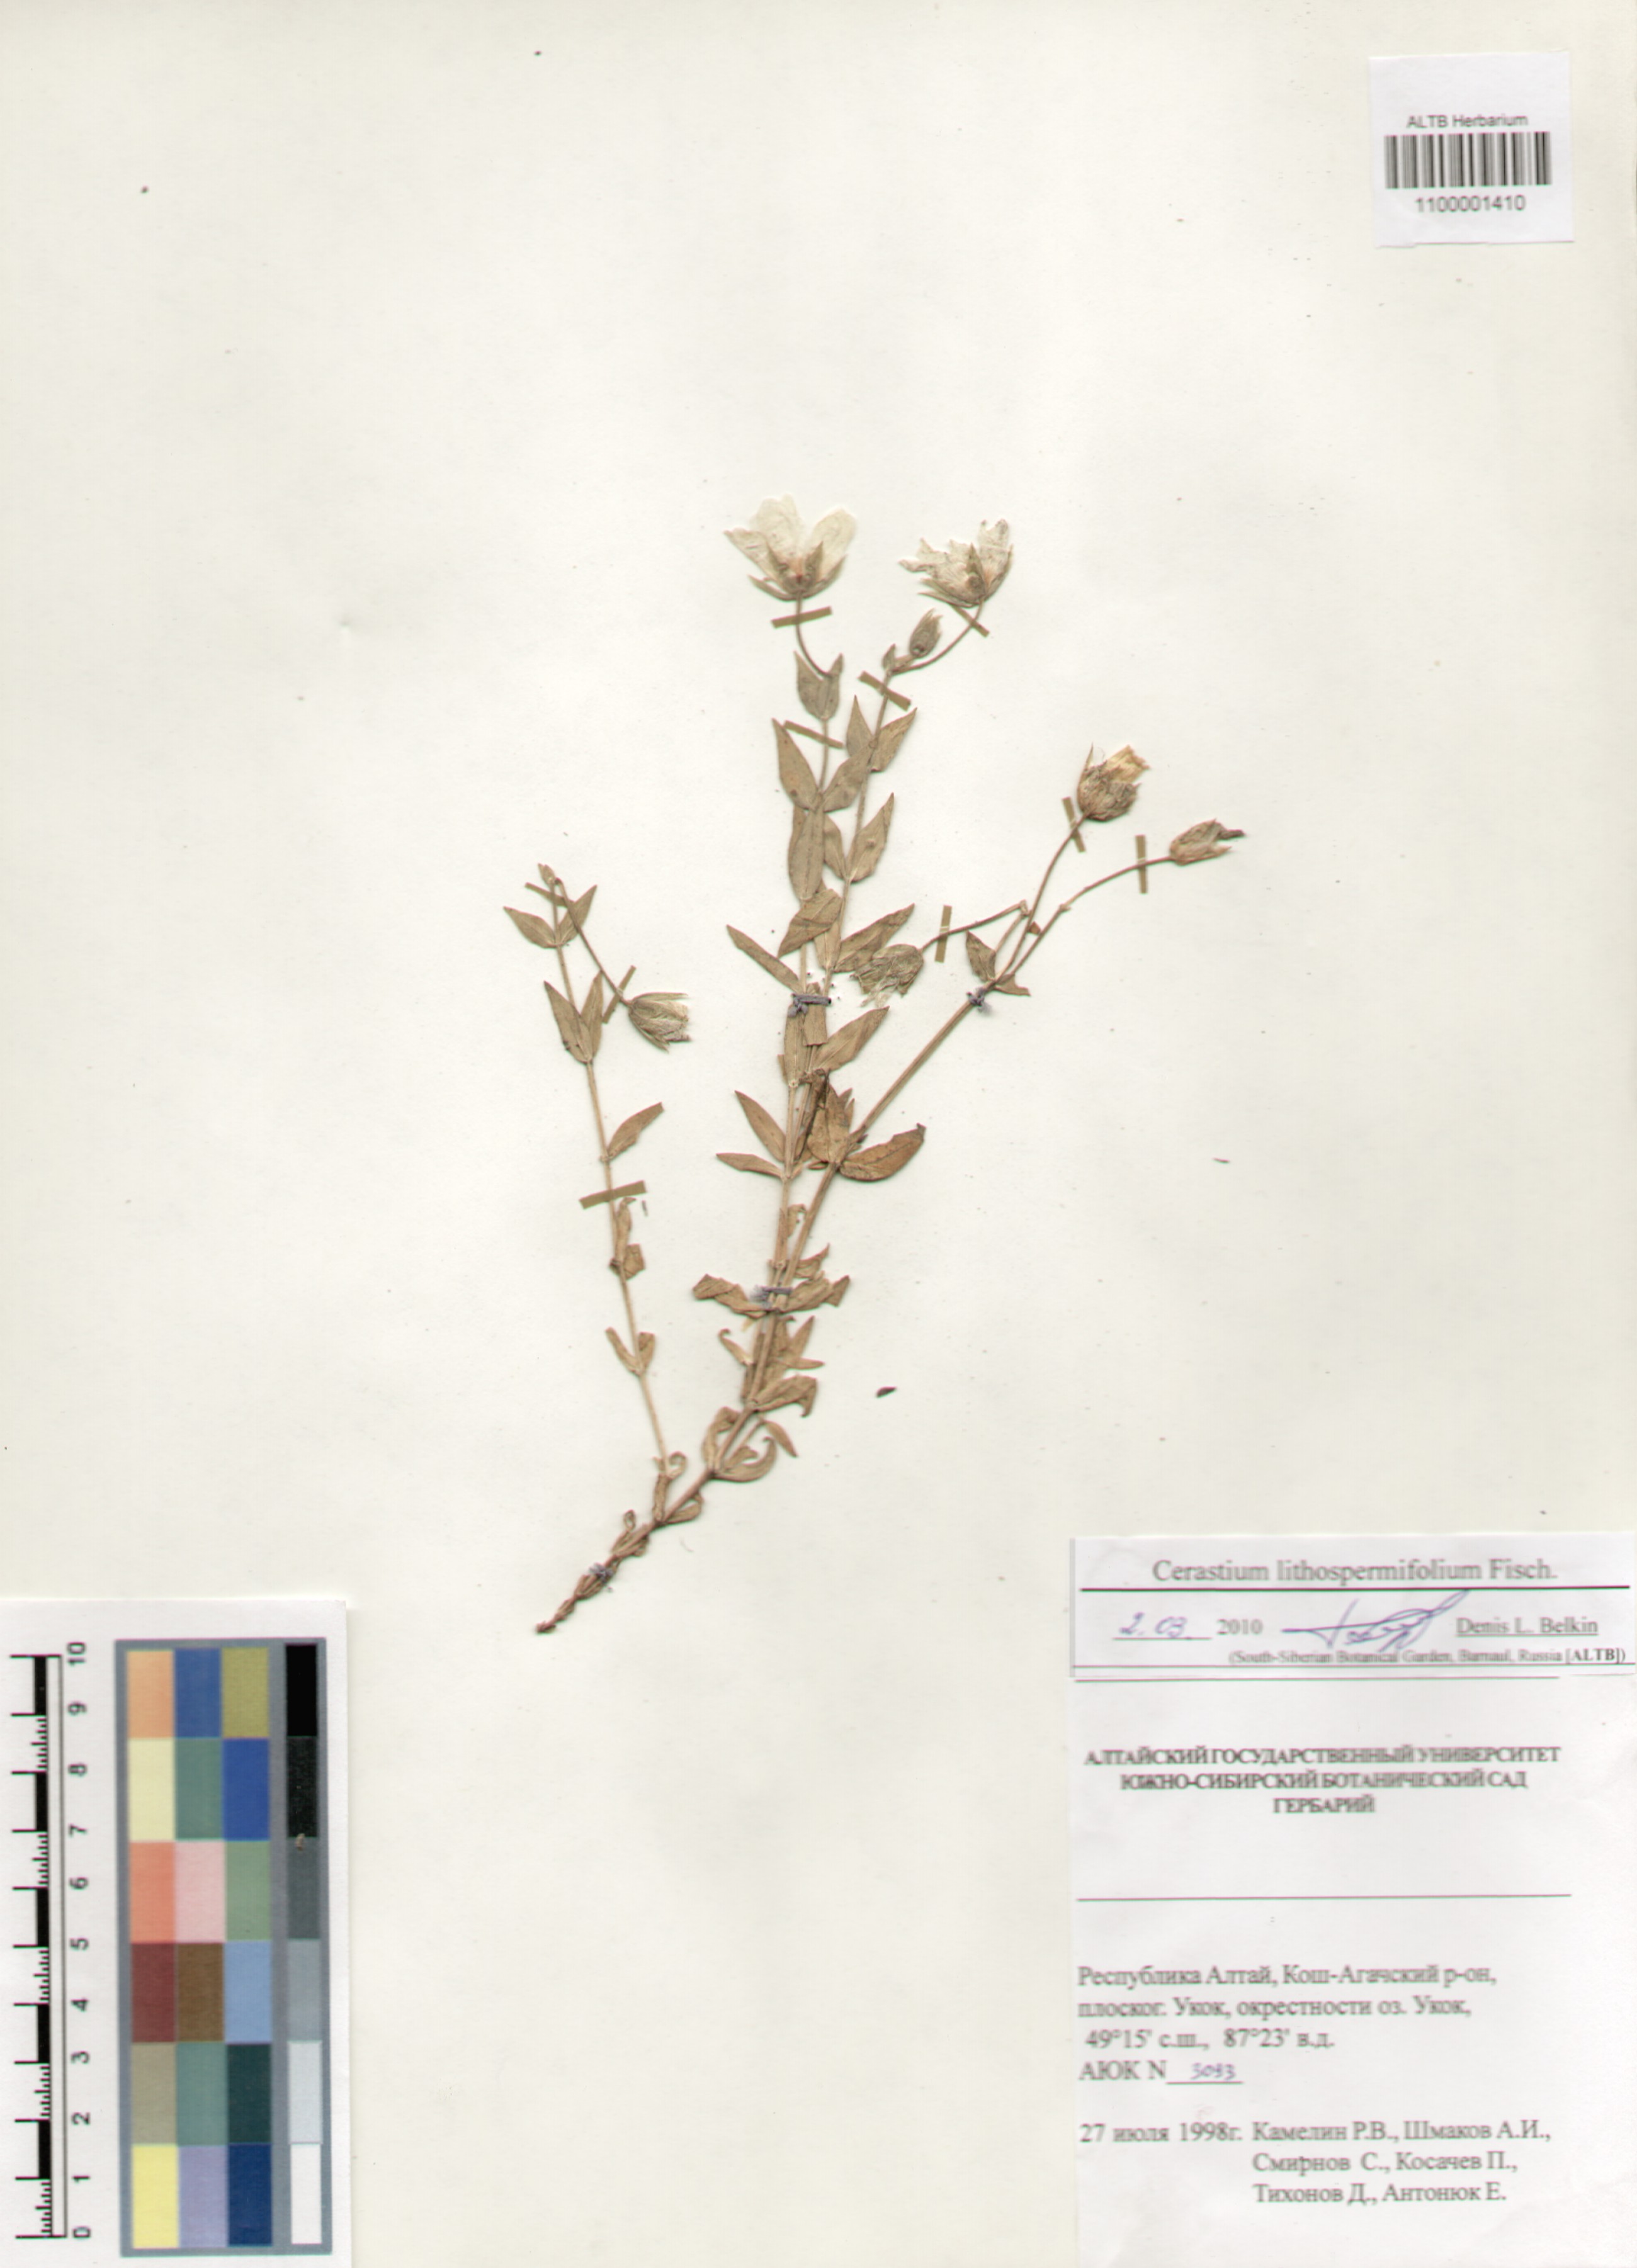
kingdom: Plantae
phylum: Tracheophyta
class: Magnoliopsida
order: Caryophyllales
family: Caryophyllaceae
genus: Cerastium
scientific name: Cerastium lithospermifolium
